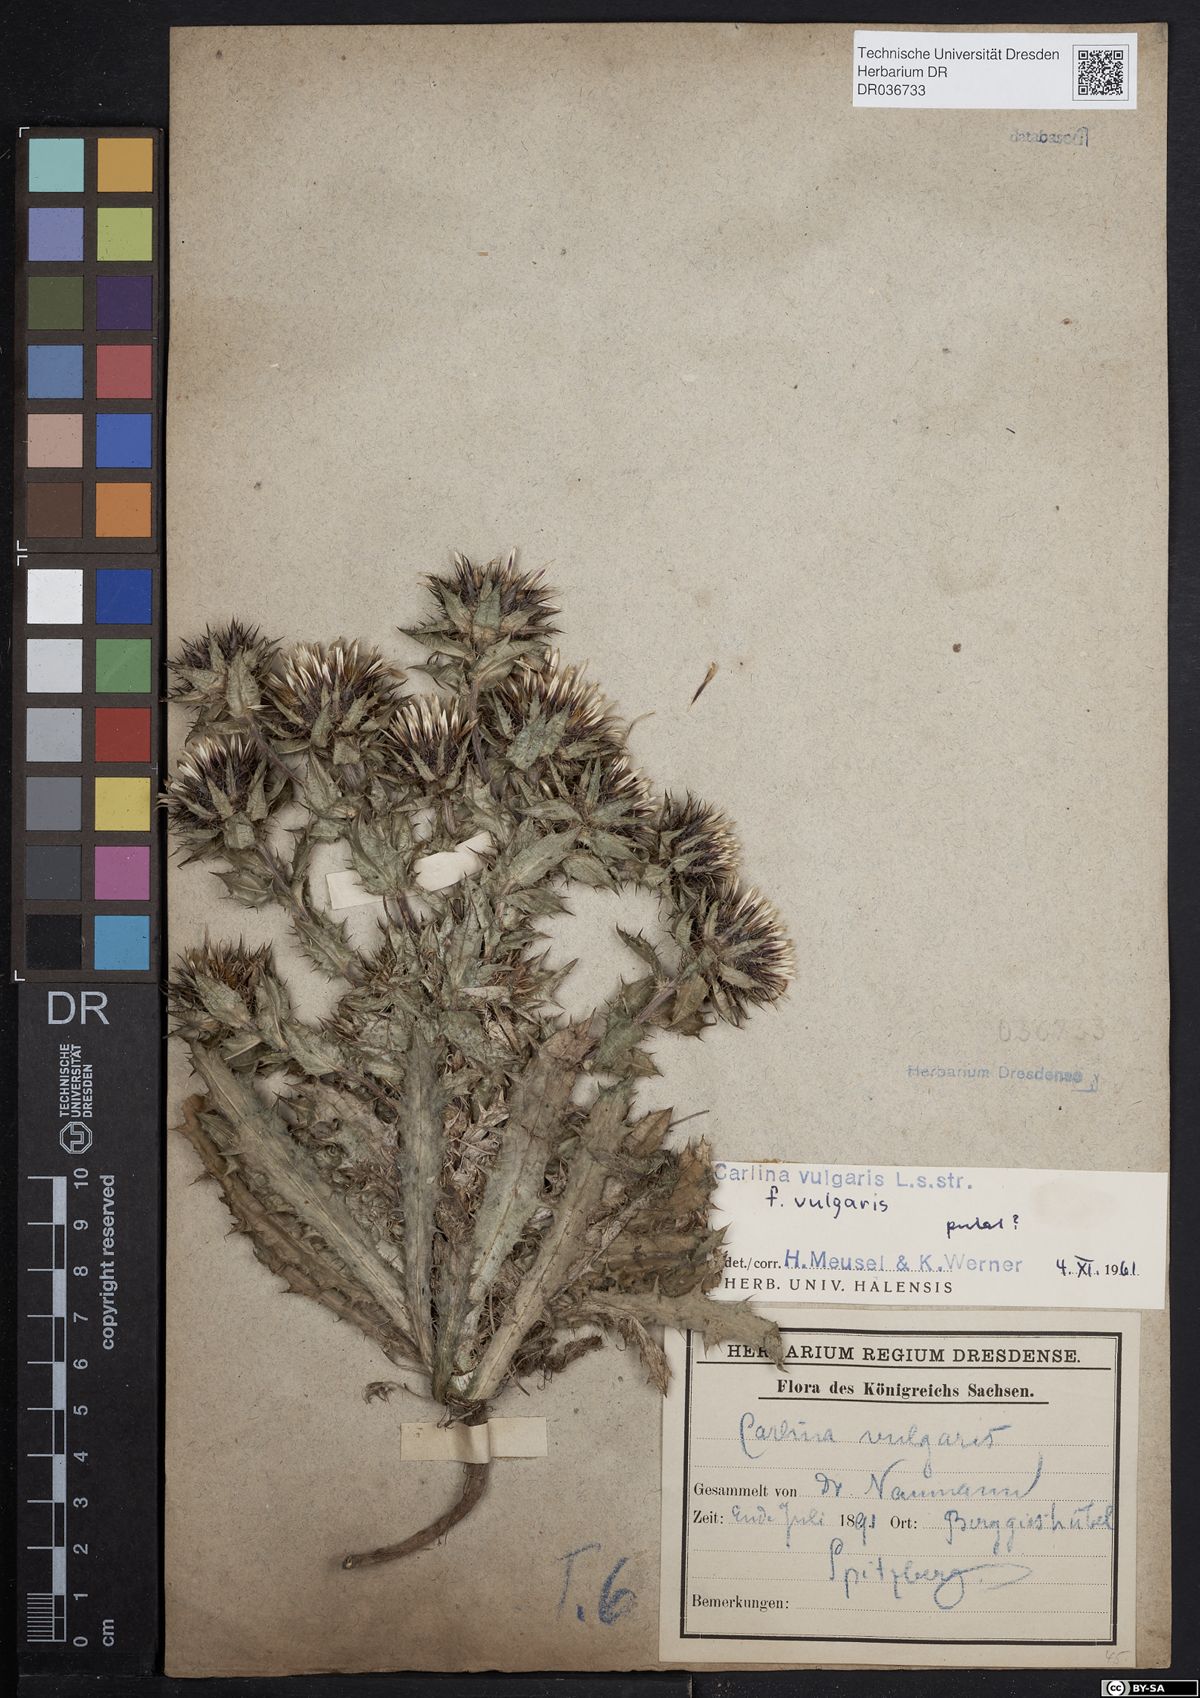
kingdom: Plantae
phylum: Tracheophyta
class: Magnoliopsida
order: Asterales
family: Asteraceae
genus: Carlina
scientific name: Carlina vulgaris
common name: Carline thistle
